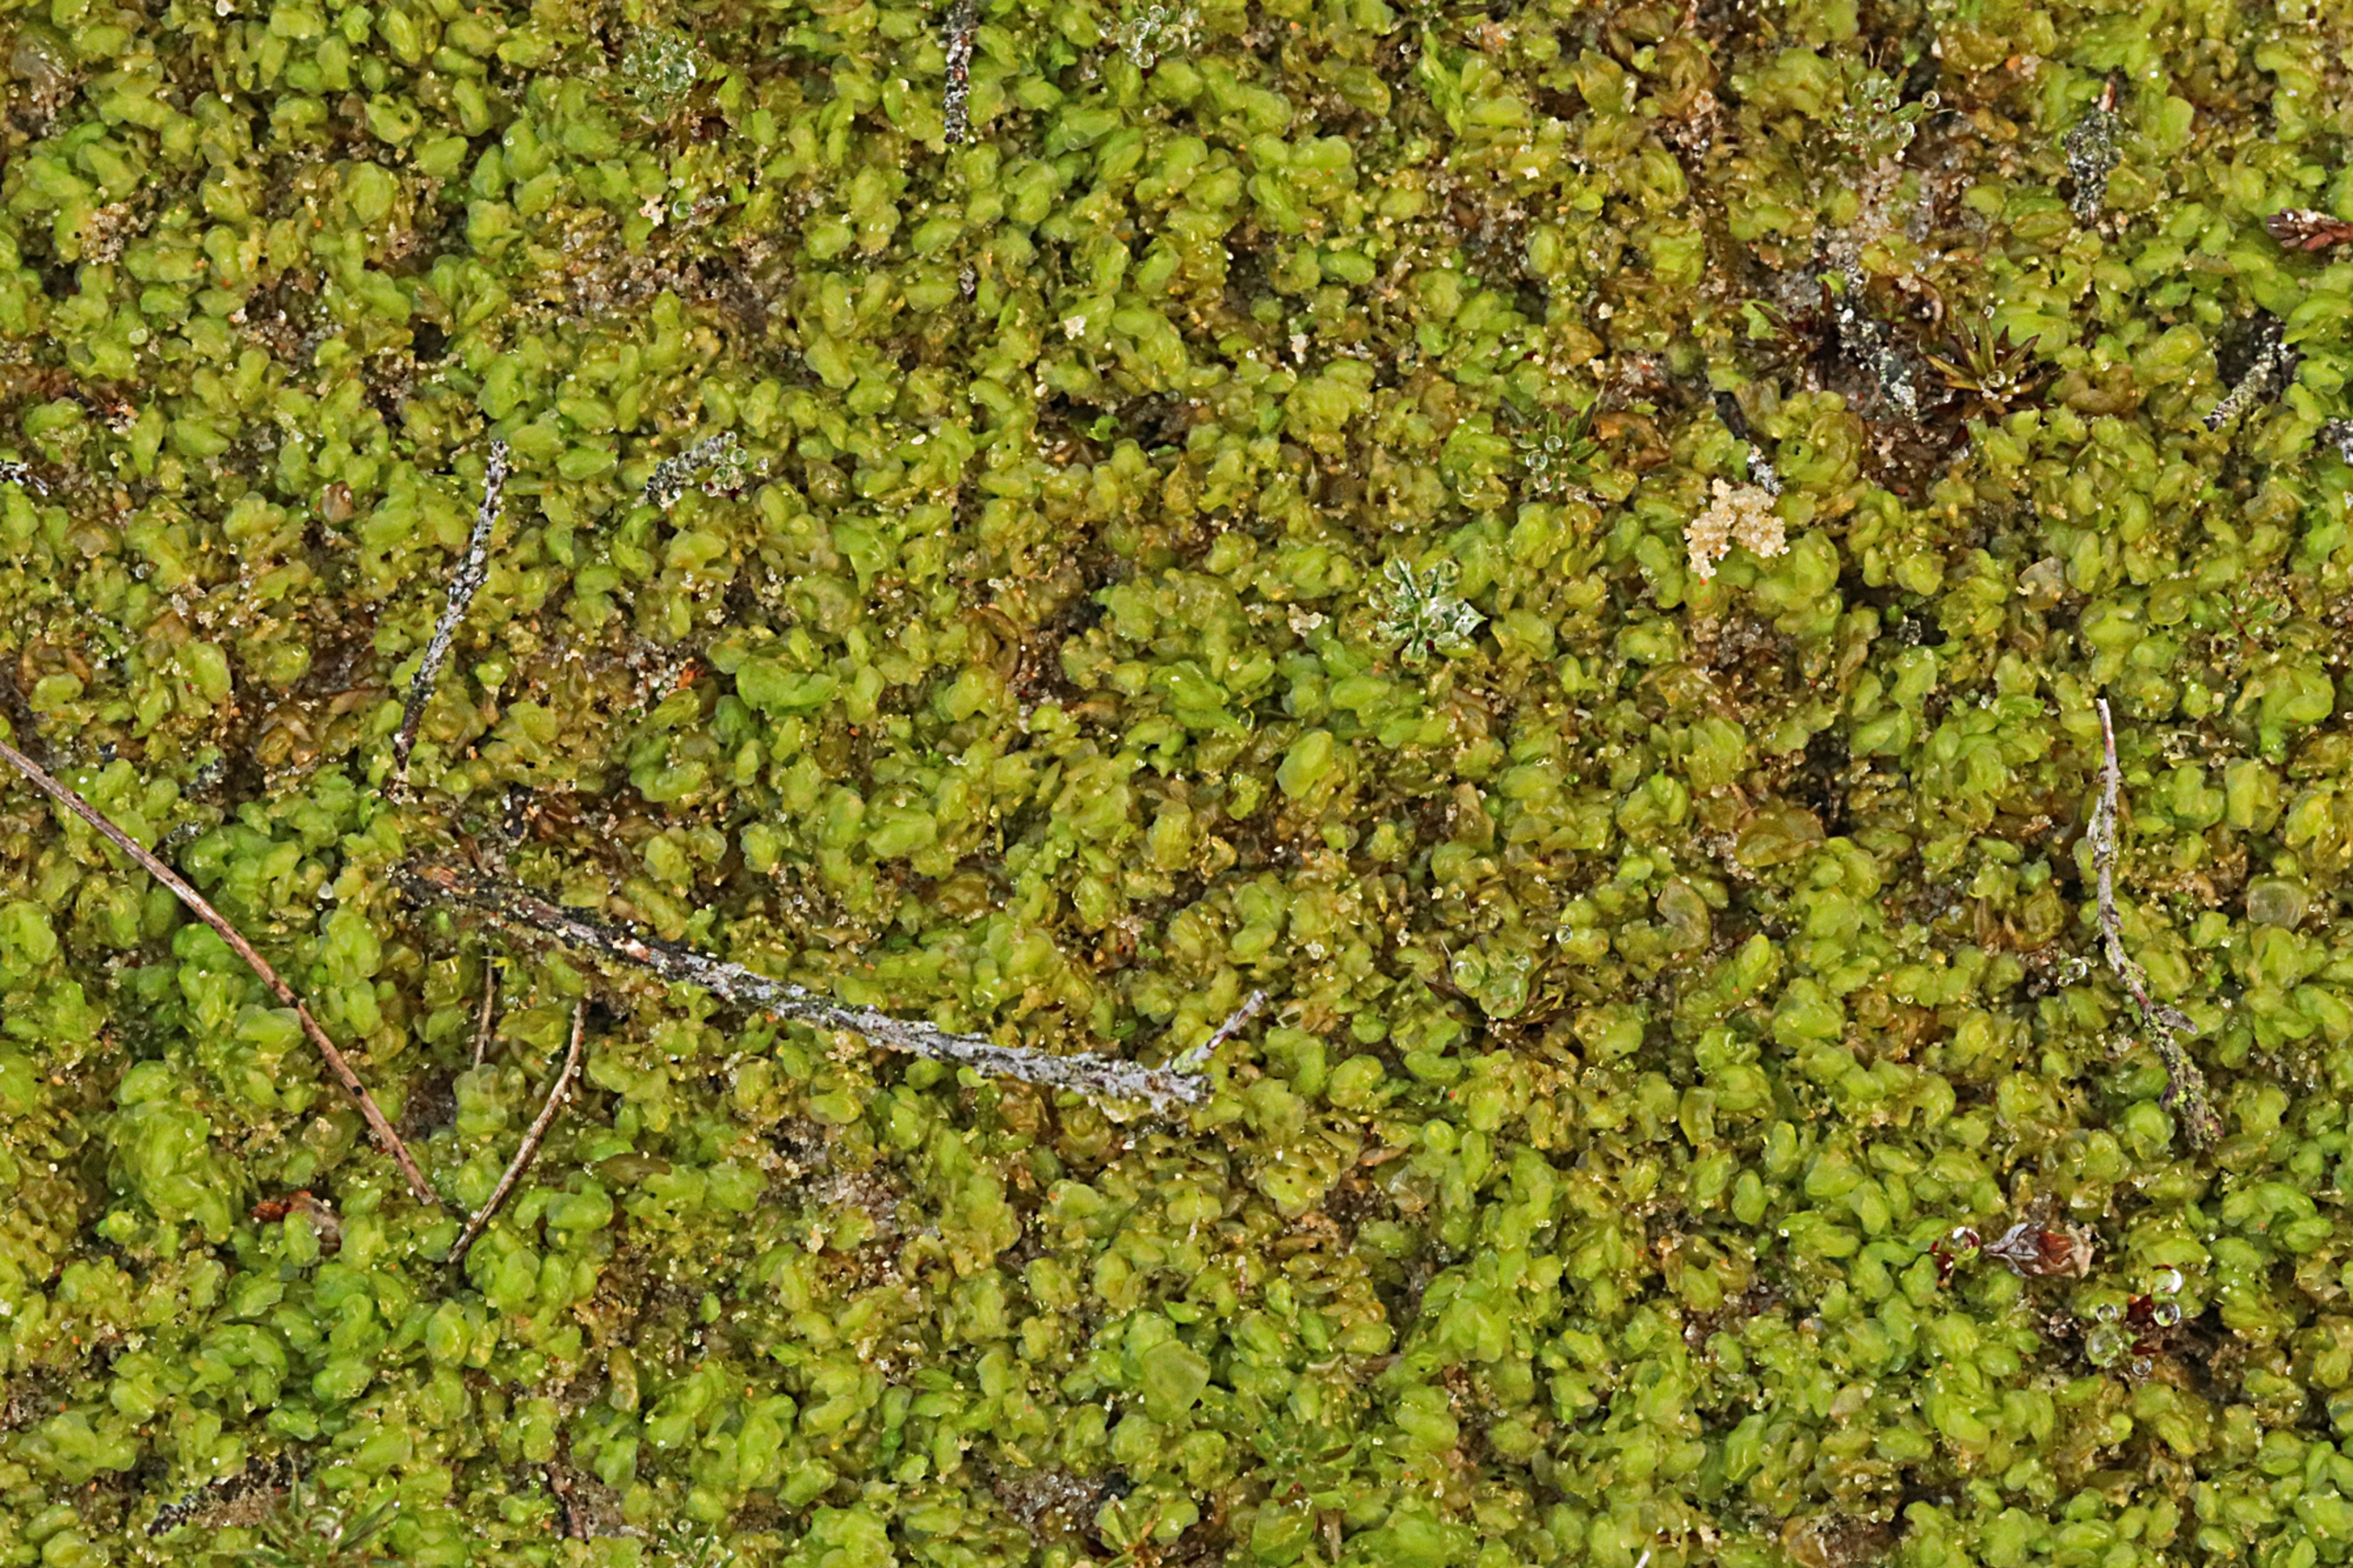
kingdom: Plantae
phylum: Marchantiophyta
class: Jungermanniopsida
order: Jungermanniales
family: Scapaniaceae
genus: Scapania
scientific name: Scapania compacta
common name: Tæt tveblad
